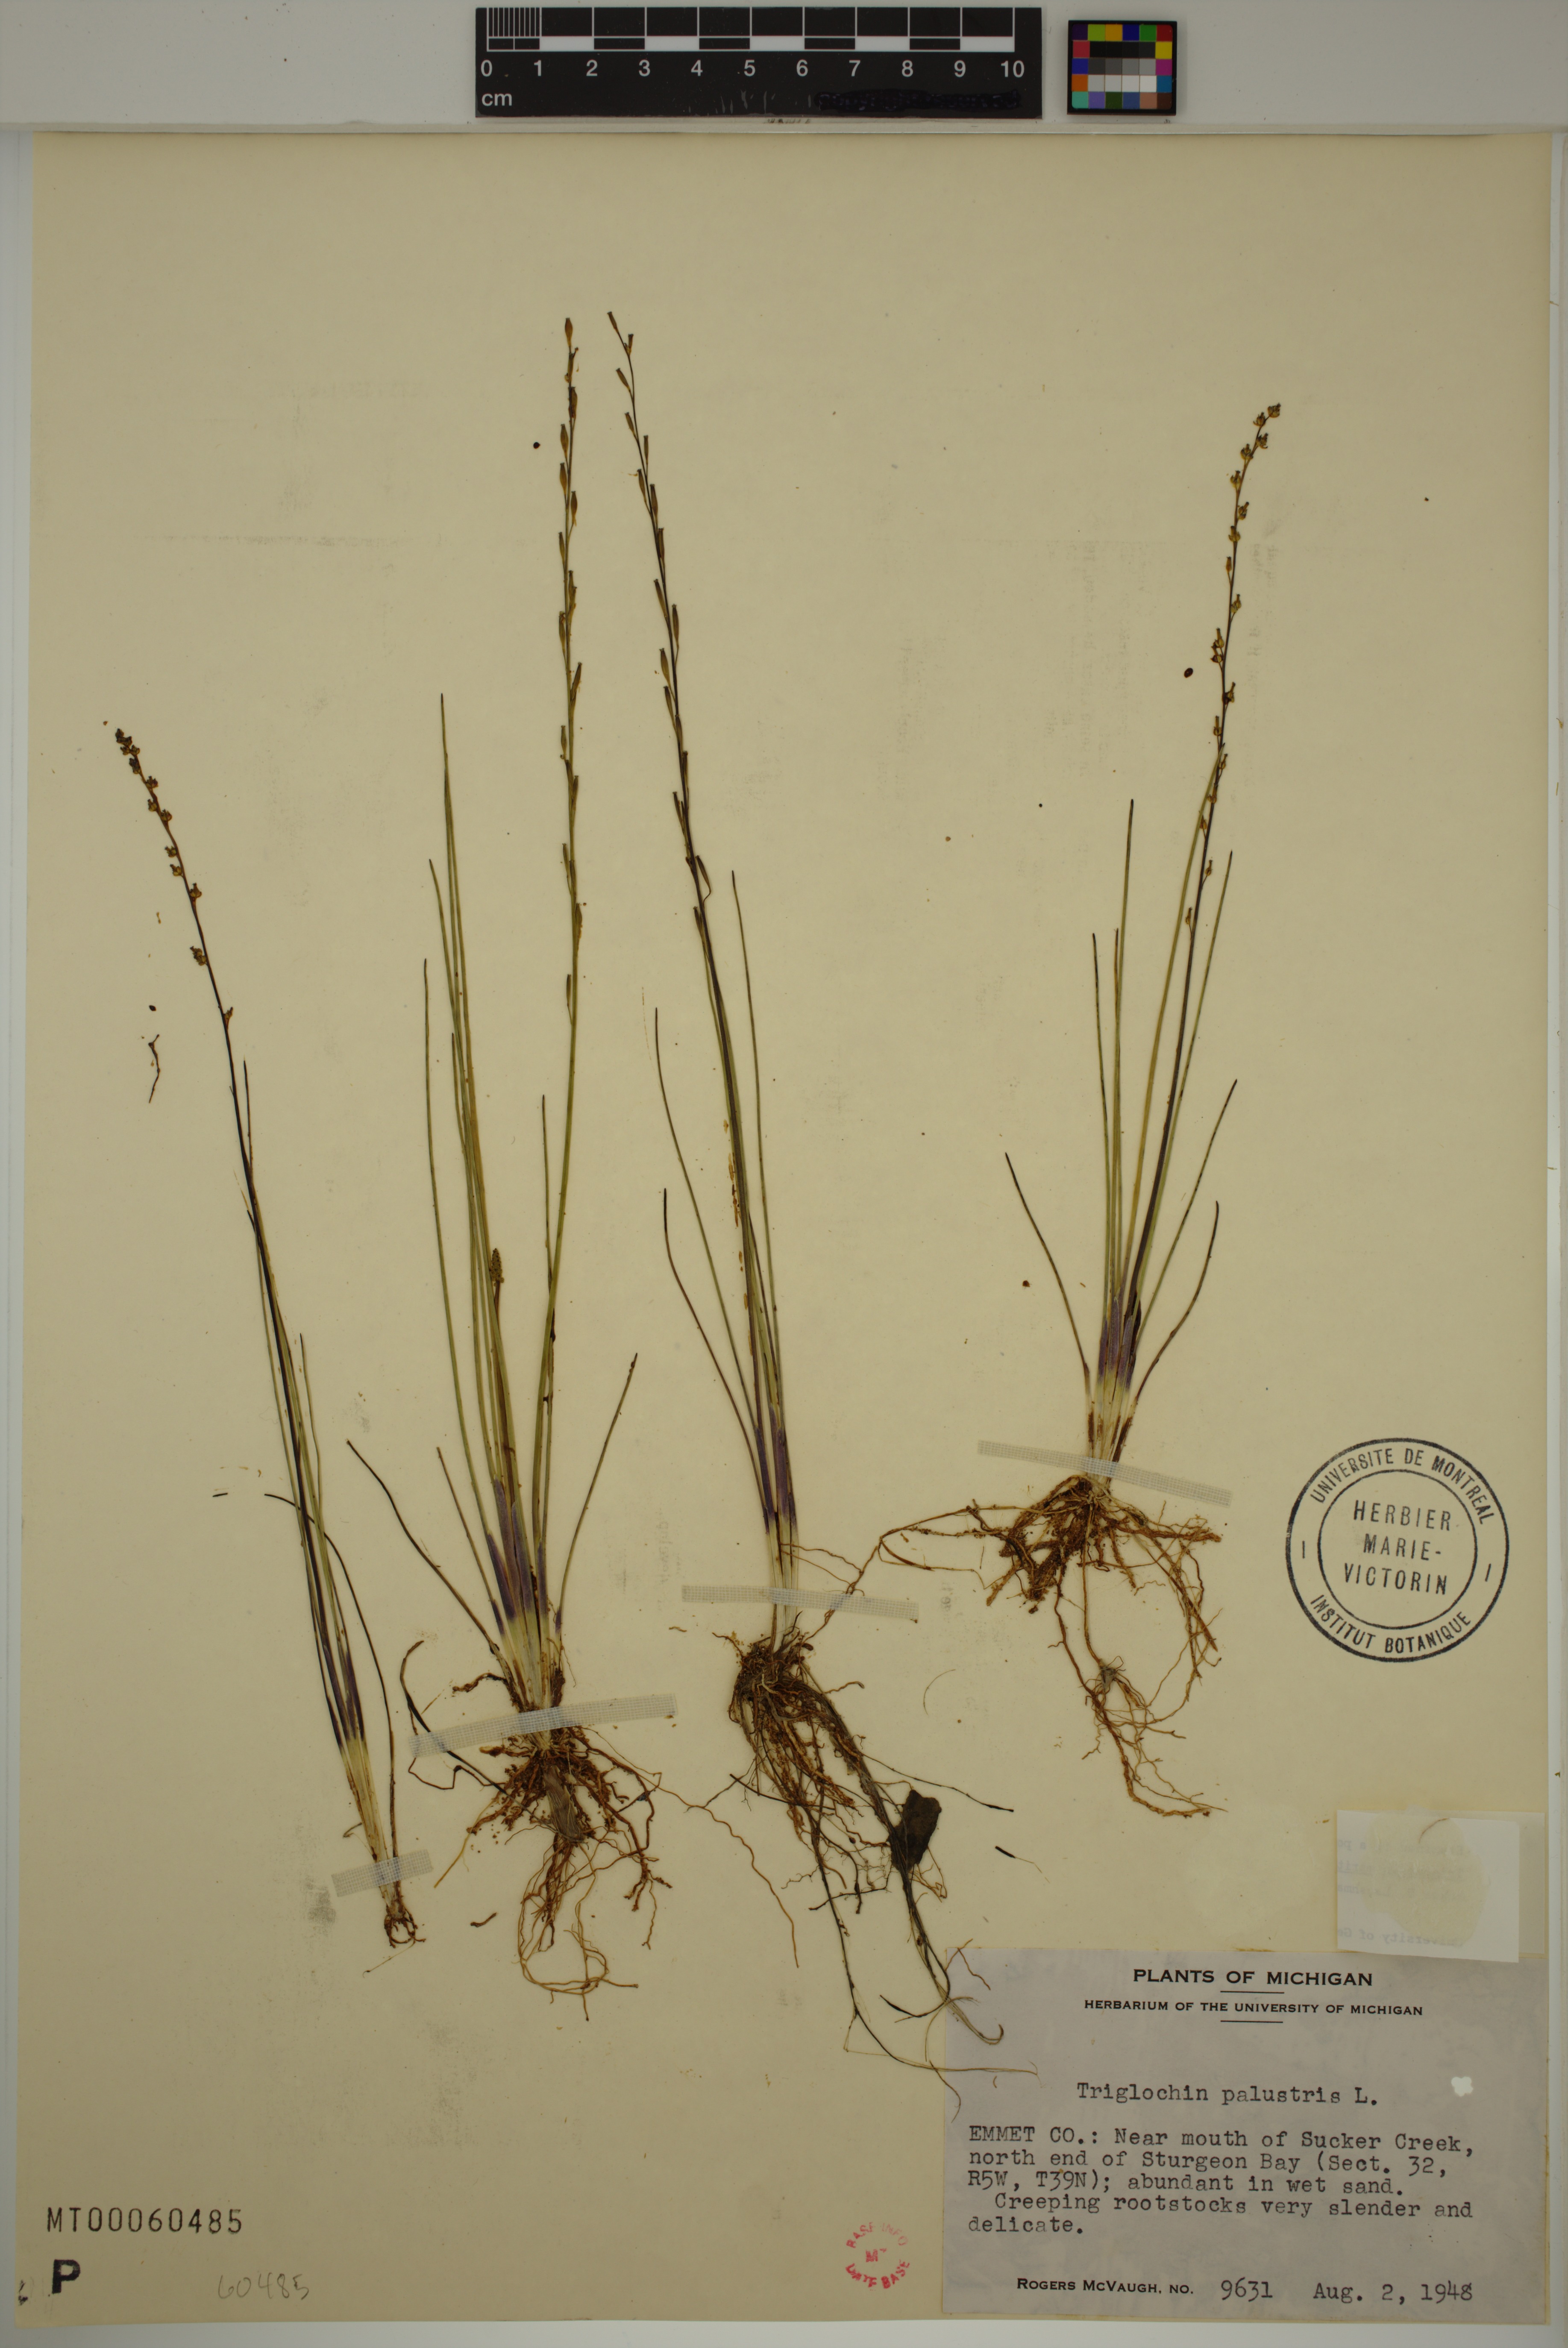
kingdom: Plantae
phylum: Tracheophyta
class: Liliopsida
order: Alismatales
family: Juncaginaceae
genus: Triglochin
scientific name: Triglochin palustris
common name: Marsh arrowgrass
